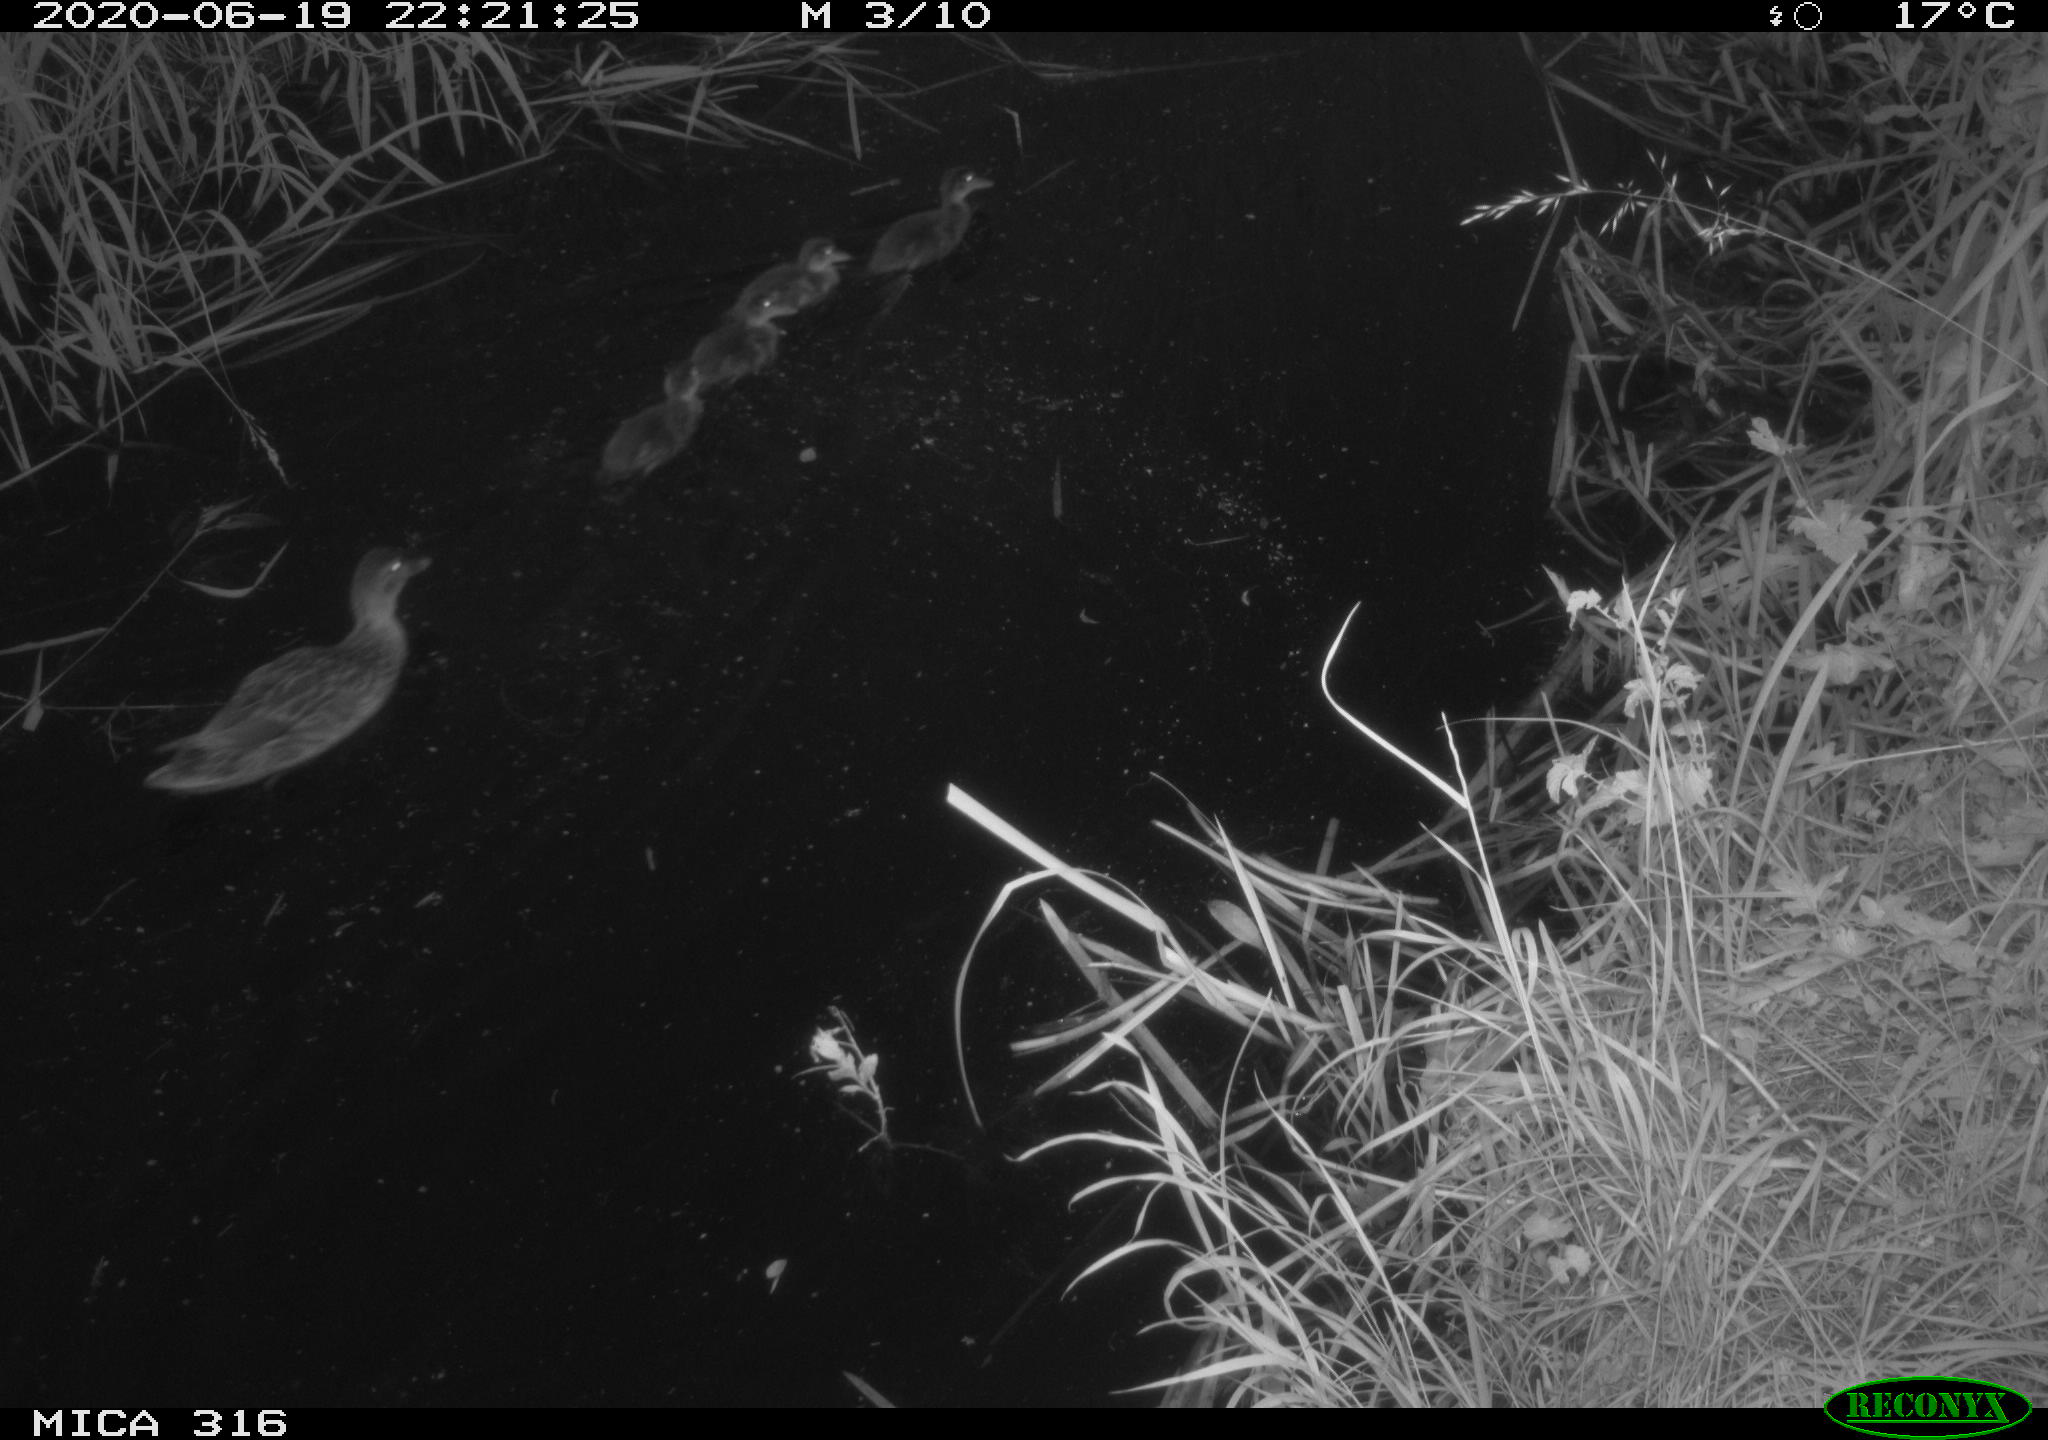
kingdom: Animalia
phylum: Chordata
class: Aves
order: Anseriformes
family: Anatidae
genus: Anas
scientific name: Anas platyrhynchos
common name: Mallard
